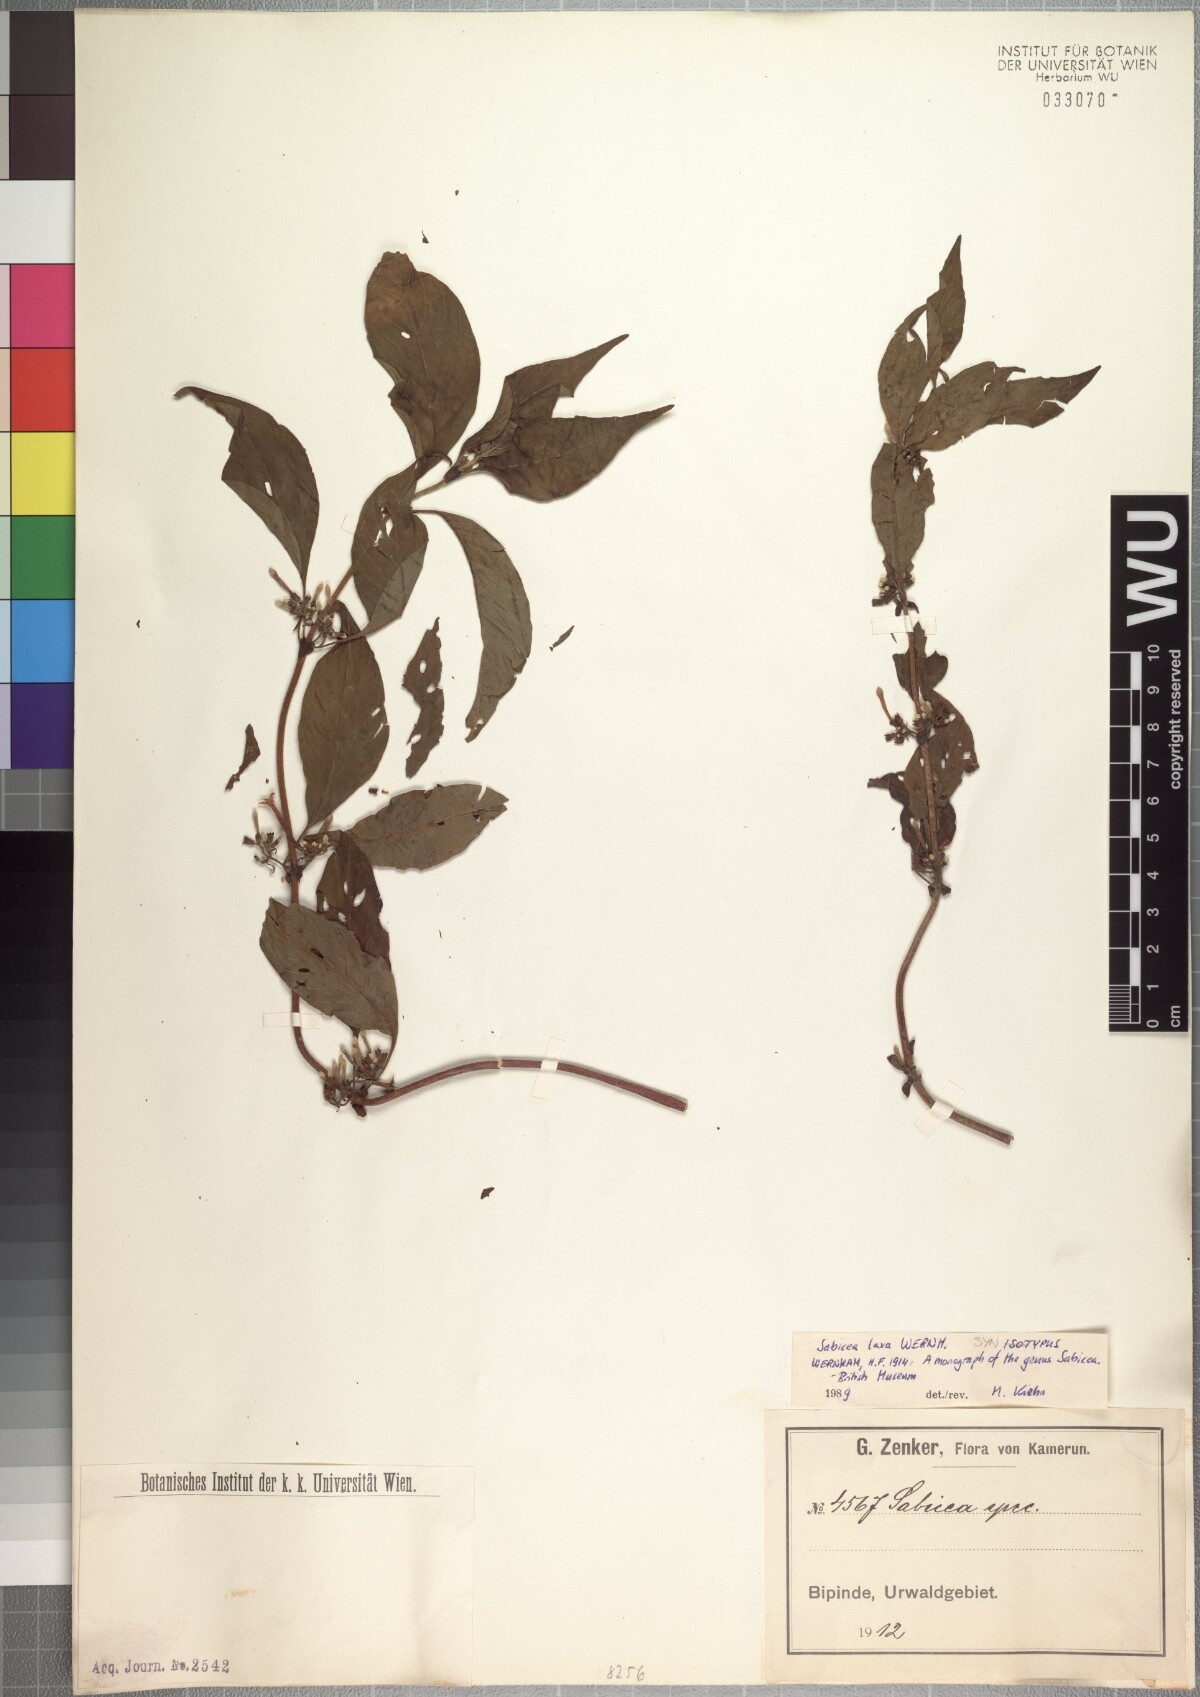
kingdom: Plantae
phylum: Tracheophyta
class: Magnoliopsida
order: Gentianales
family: Rubiaceae
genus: Sabicea
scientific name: Sabicea laxa
